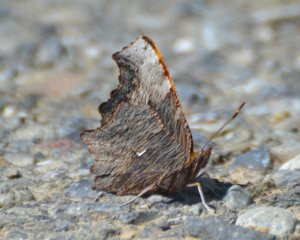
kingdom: Animalia
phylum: Arthropoda
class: Insecta
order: Lepidoptera
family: Nymphalidae
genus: Polygonia
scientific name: Polygonia progne
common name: Gray Comma
